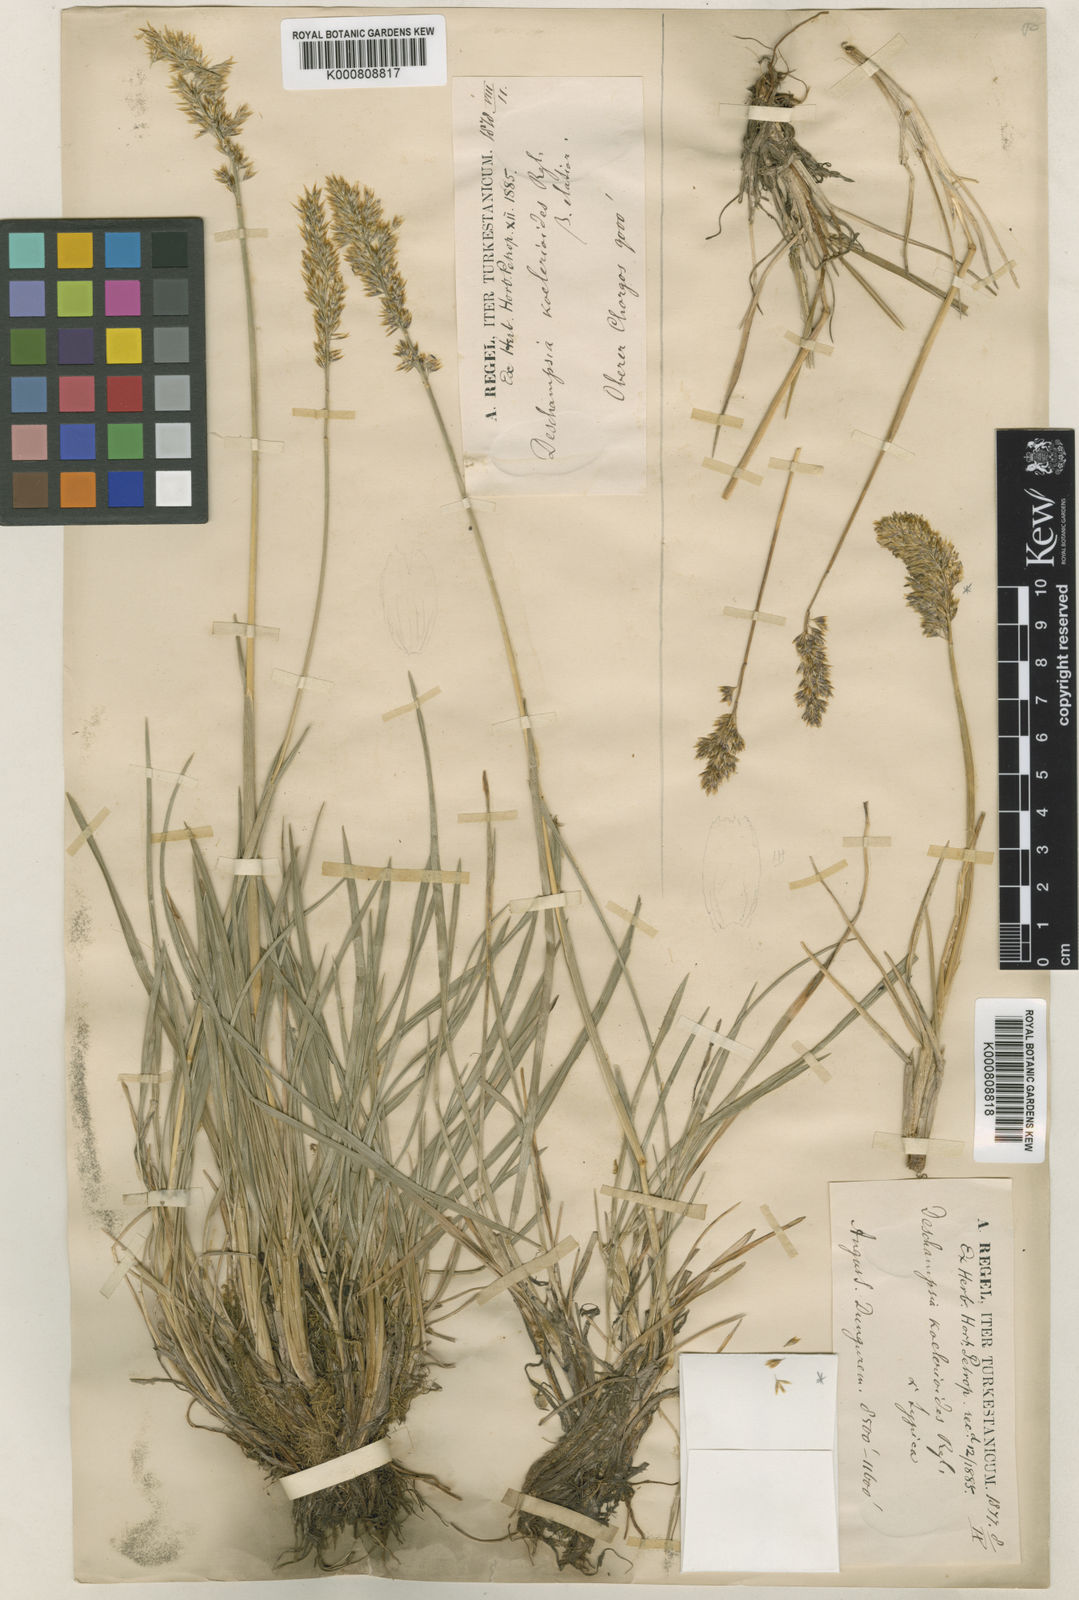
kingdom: Plantae
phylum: Tracheophyta
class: Liliopsida
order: Poales
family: Poaceae
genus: Deschampsia
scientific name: Deschampsia koelerioides
